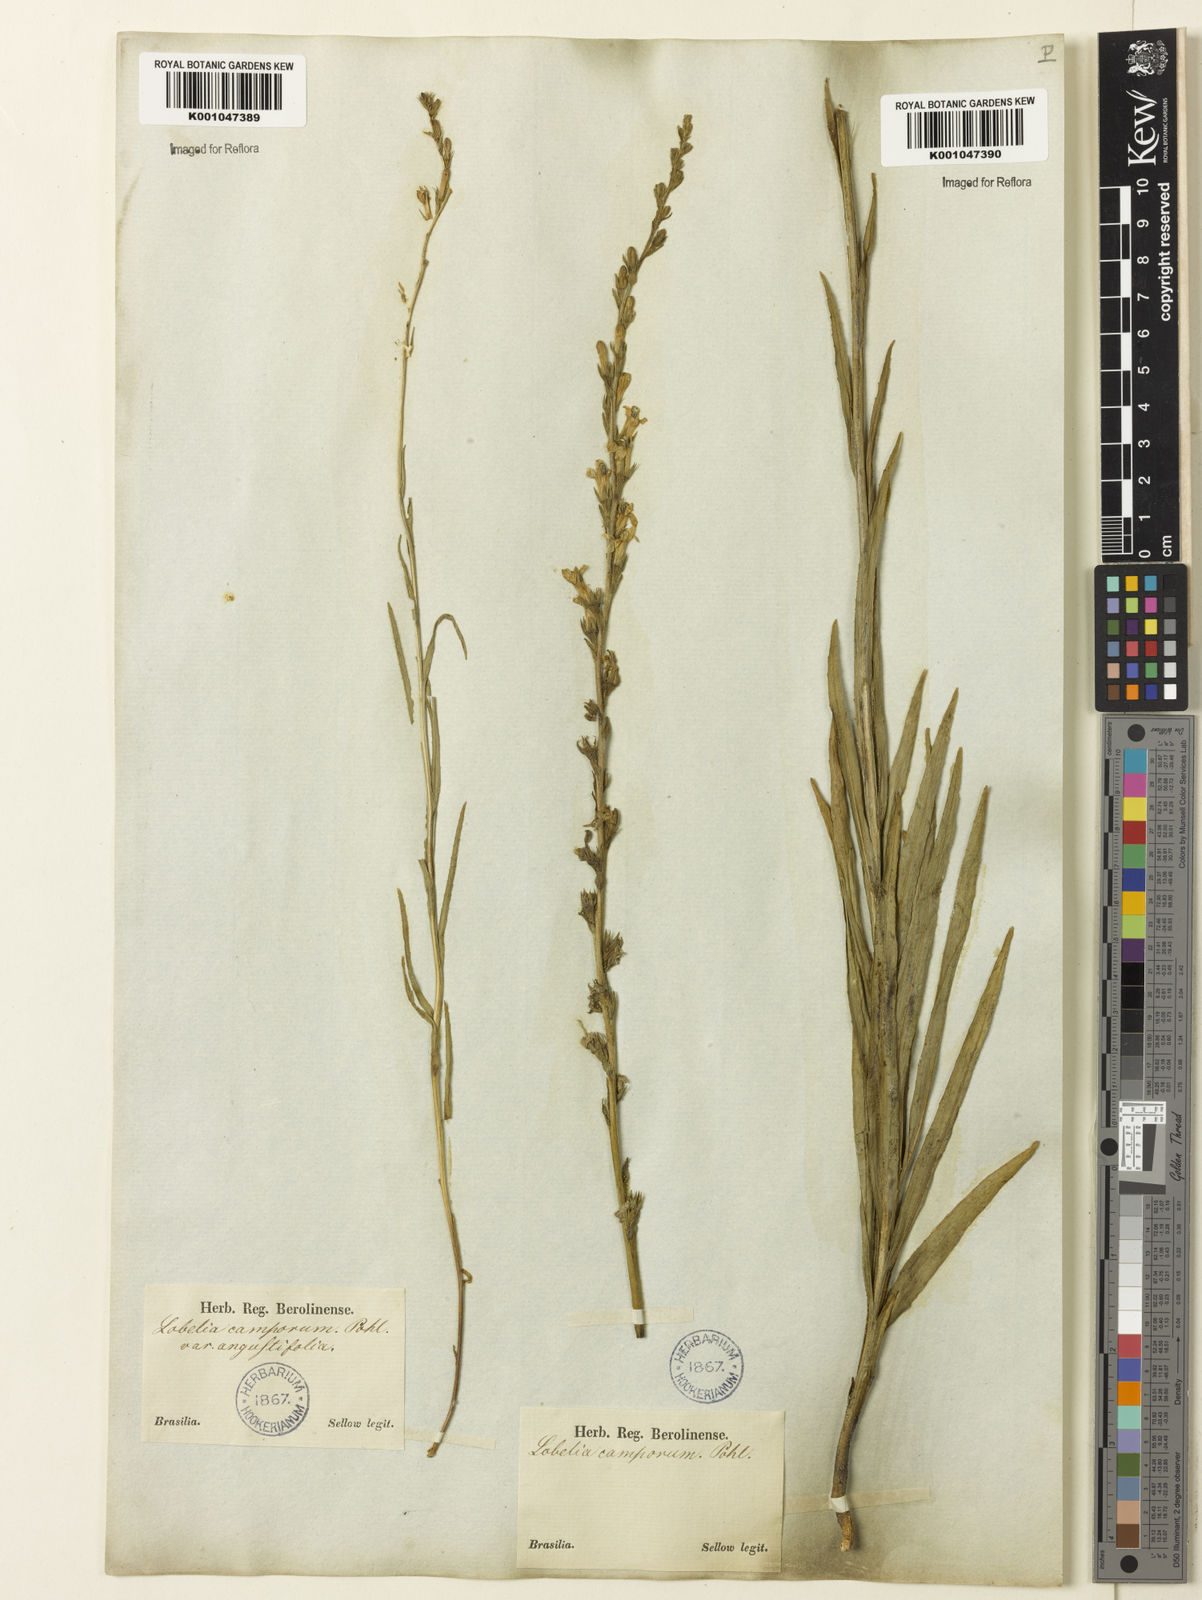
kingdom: Plantae
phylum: Tracheophyta
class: Magnoliopsida
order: Asterales
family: Campanulaceae
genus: Lobelia
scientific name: Lobelia camporum
